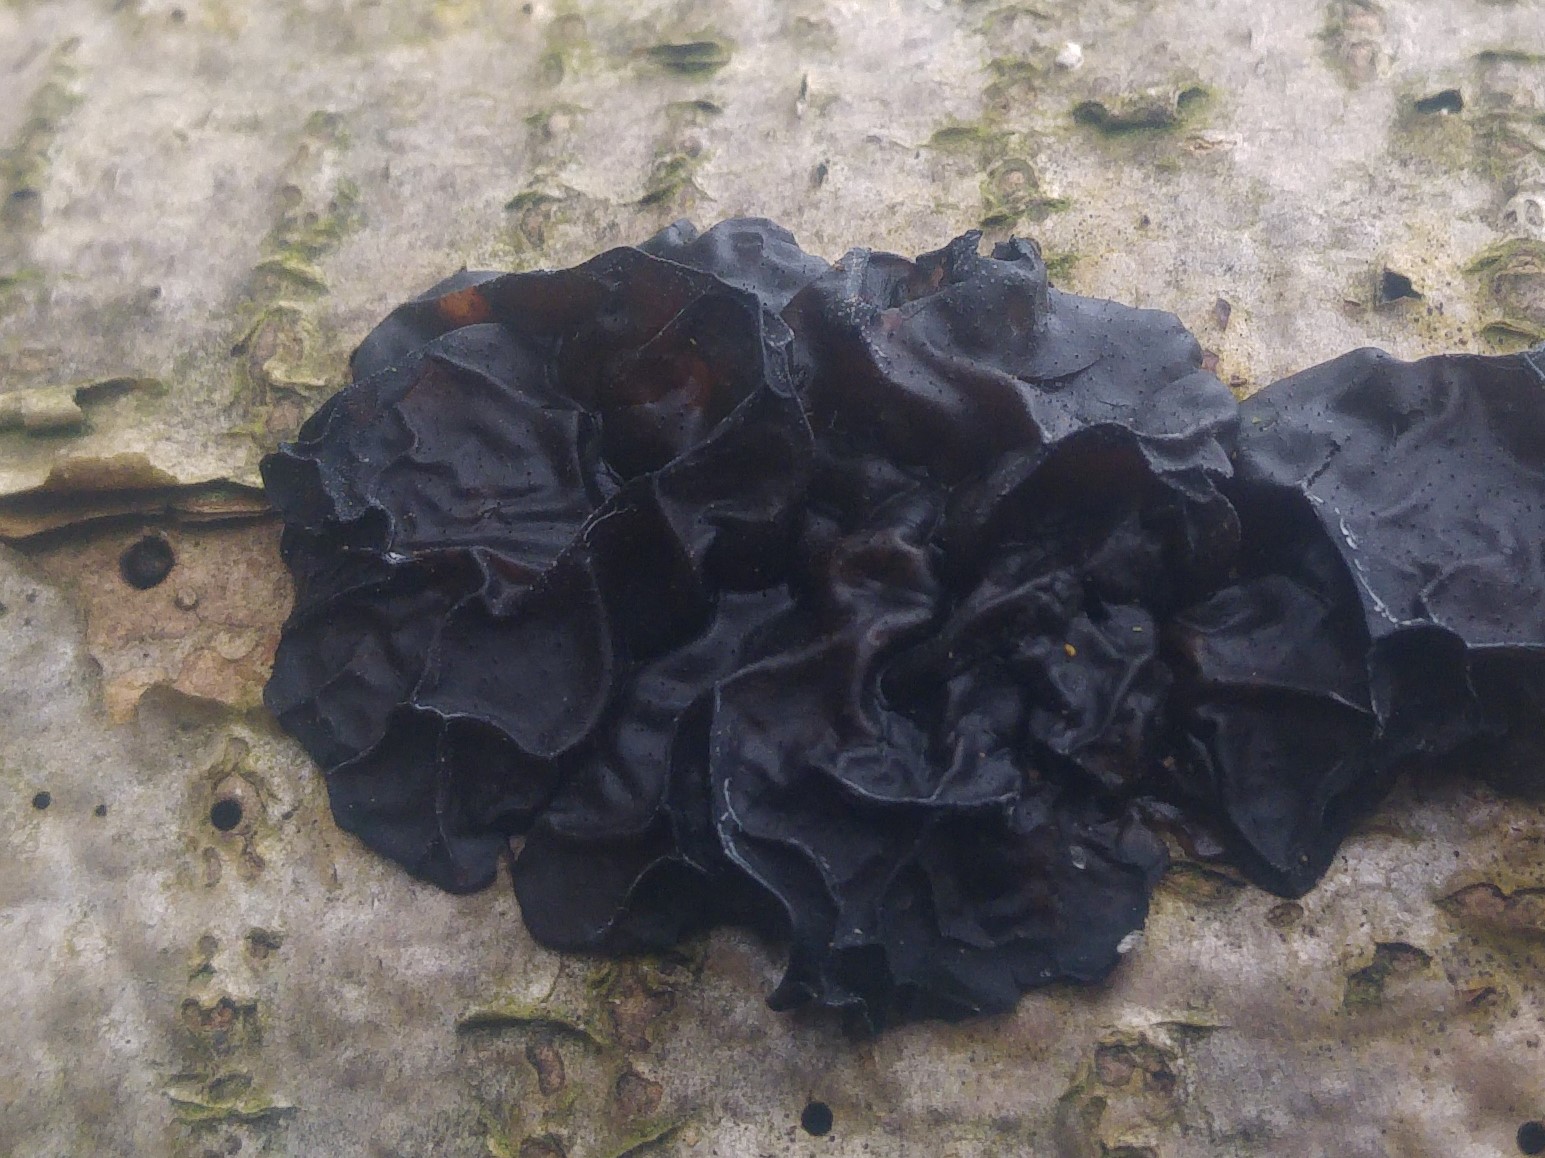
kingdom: Fungi
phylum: Basidiomycota
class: Agaricomycetes
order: Auriculariales
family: Auriculariaceae
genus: Exidia
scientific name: Exidia nigricans
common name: almindelig bævretop
